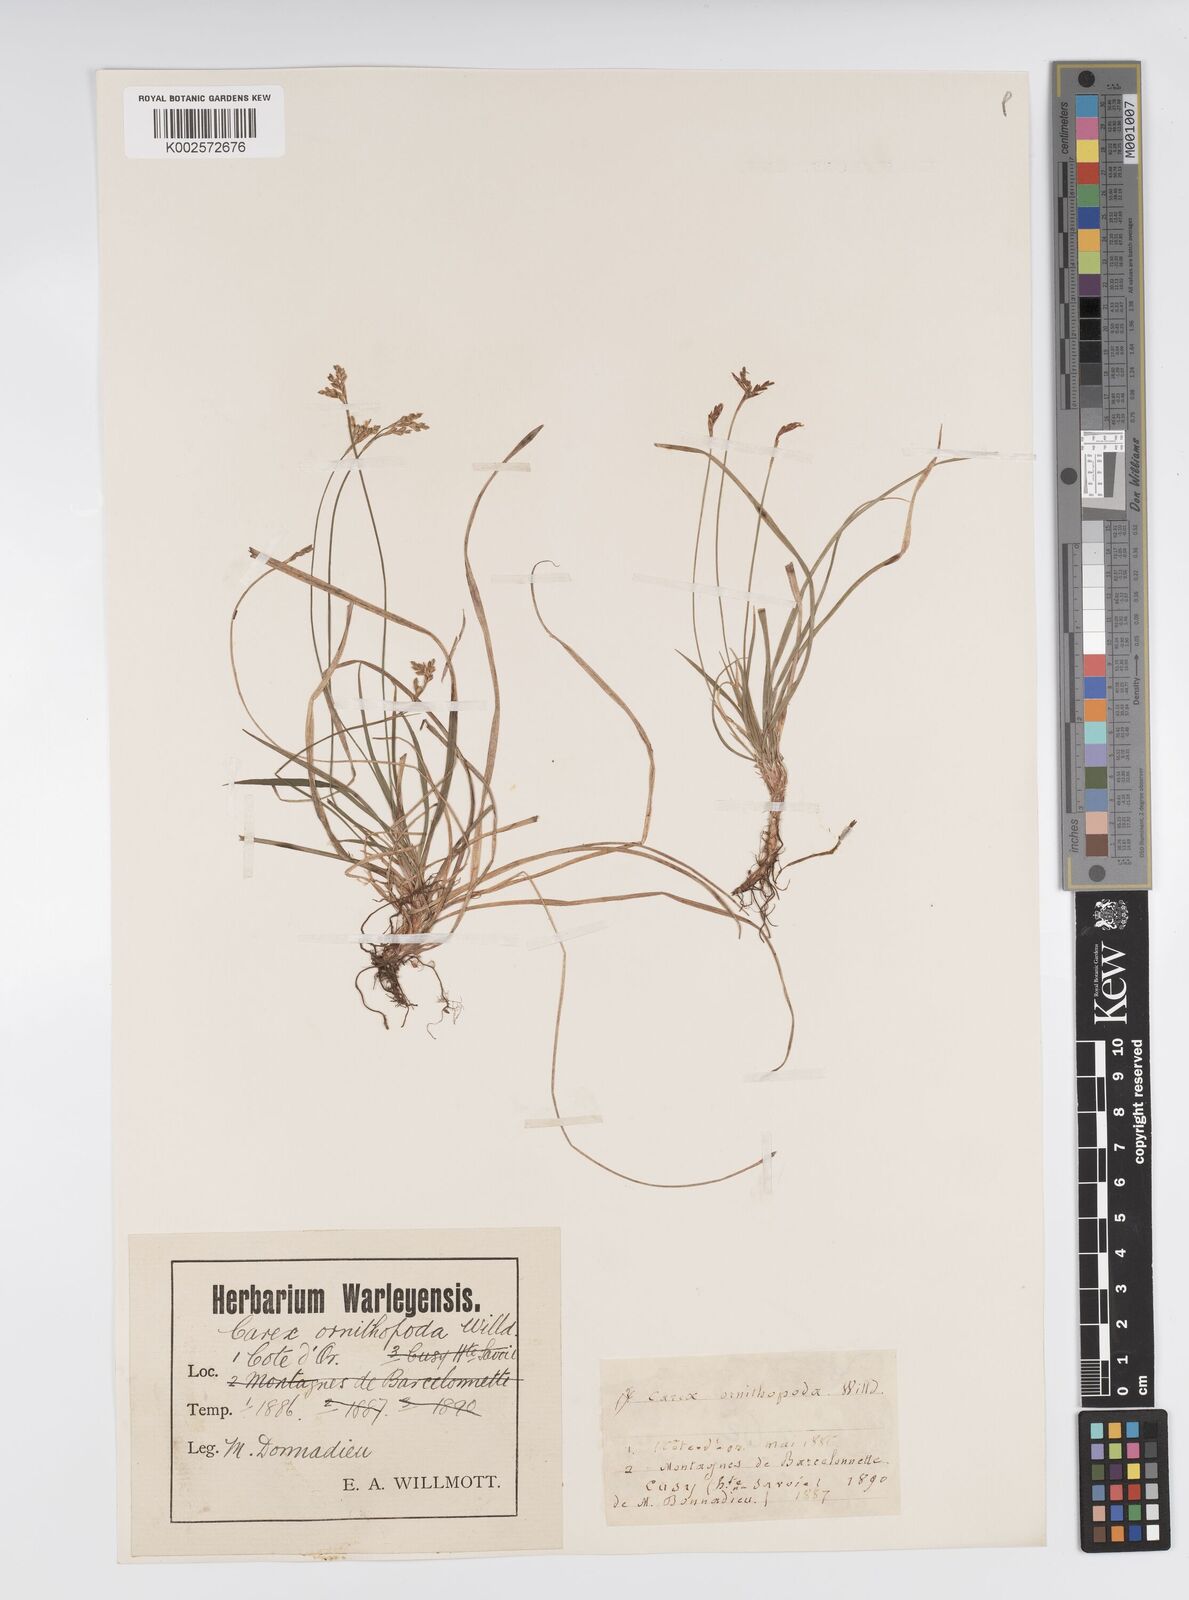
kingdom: Plantae
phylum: Tracheophyta
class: Liliopsida
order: Poales
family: Cyperaceae
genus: Carex
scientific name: Carex ornithopoda
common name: Bird's-foot sedge
